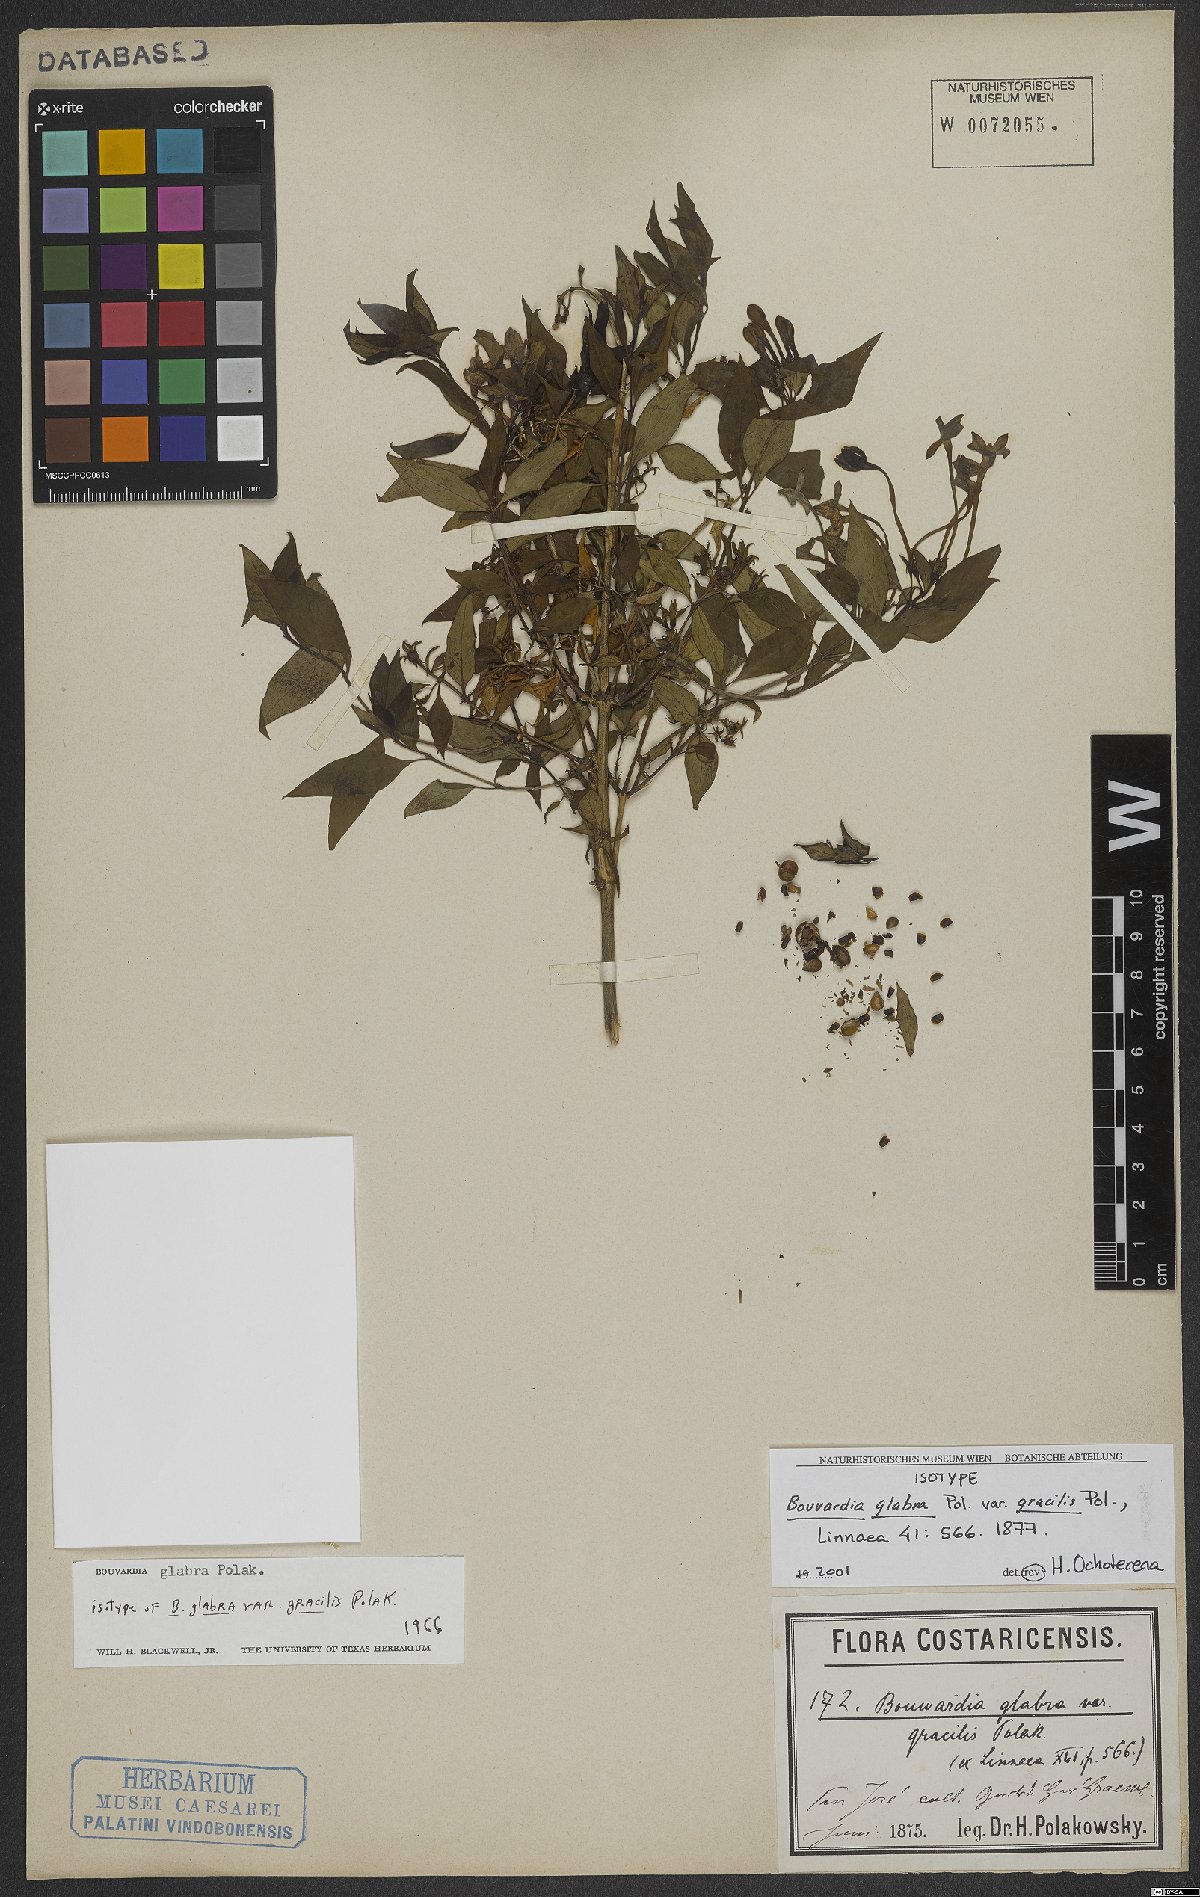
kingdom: Plantae
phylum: Tracheophyta
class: Magnoliopsida
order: Gentianales
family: Rubiaceae
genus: Bouvardia
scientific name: Bouvardia glabra
